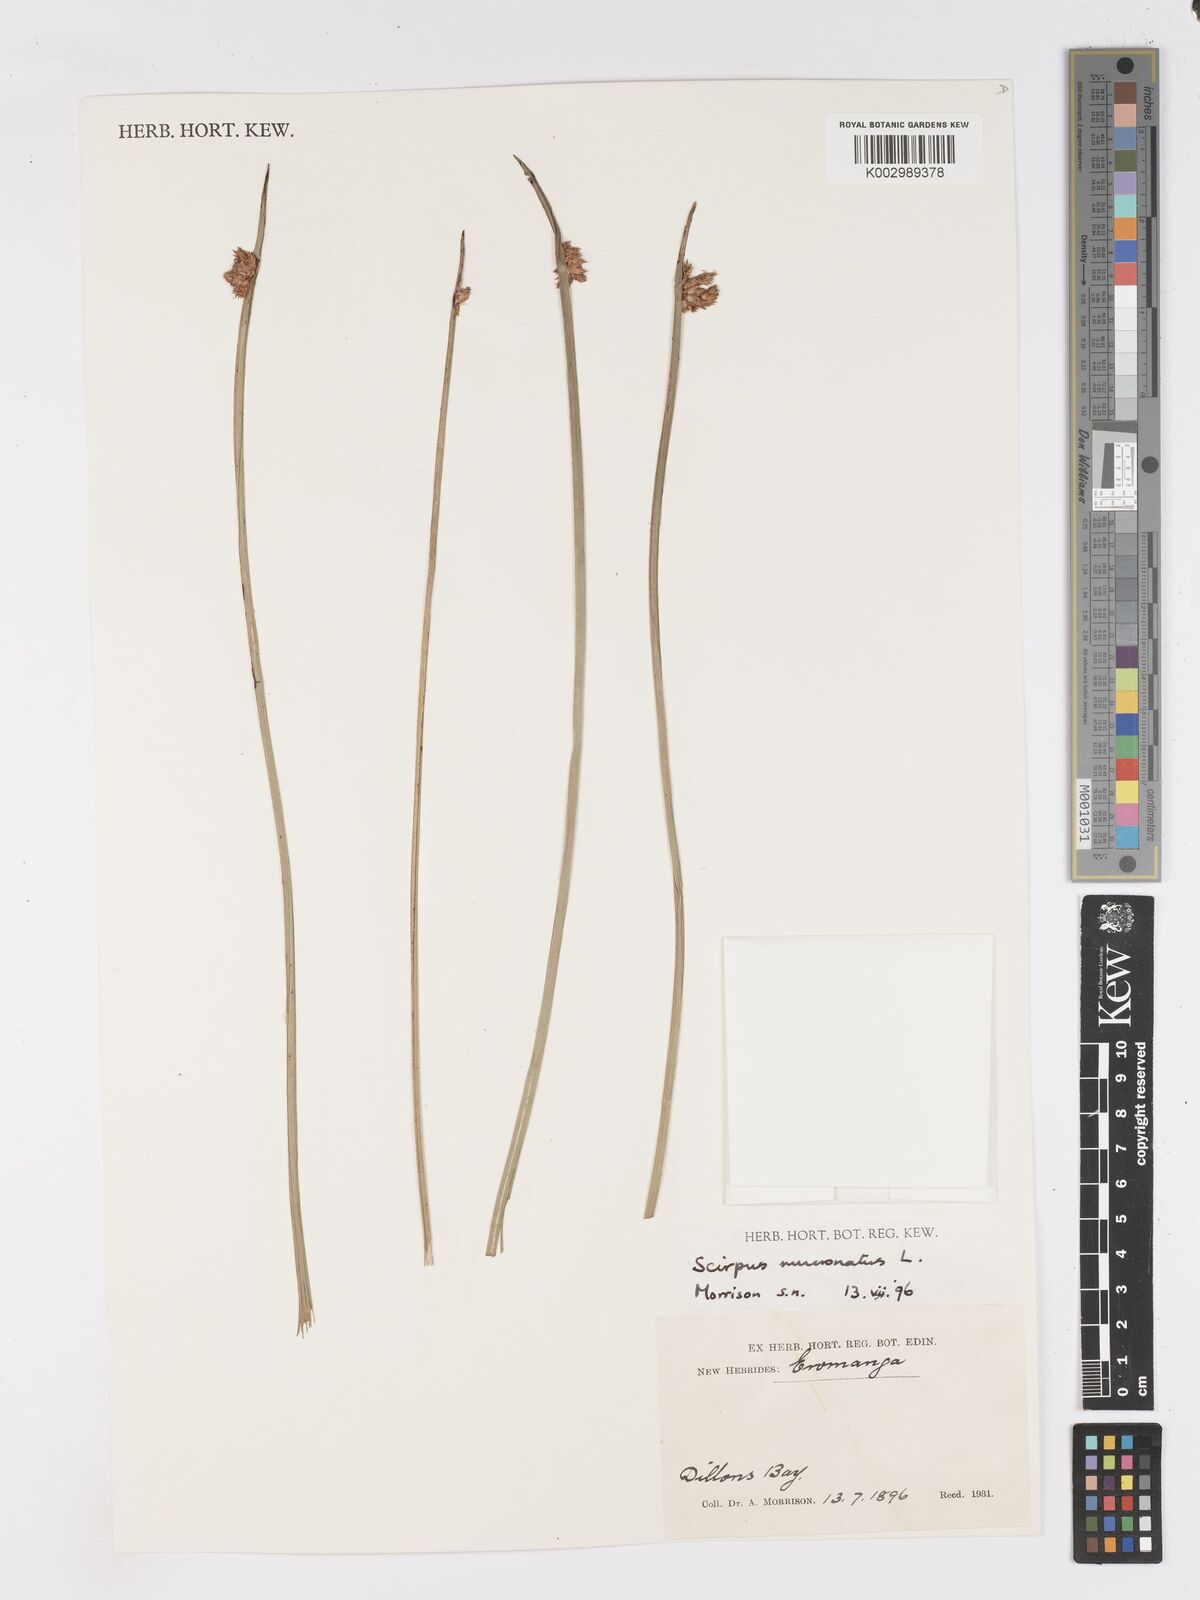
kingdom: Plantae
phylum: Tracheophyta
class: Liliopsida
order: Poales
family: Cyperaceae
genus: Schoenoplectiella
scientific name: Schoenoplectiella mucronata
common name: Bog bulrush
